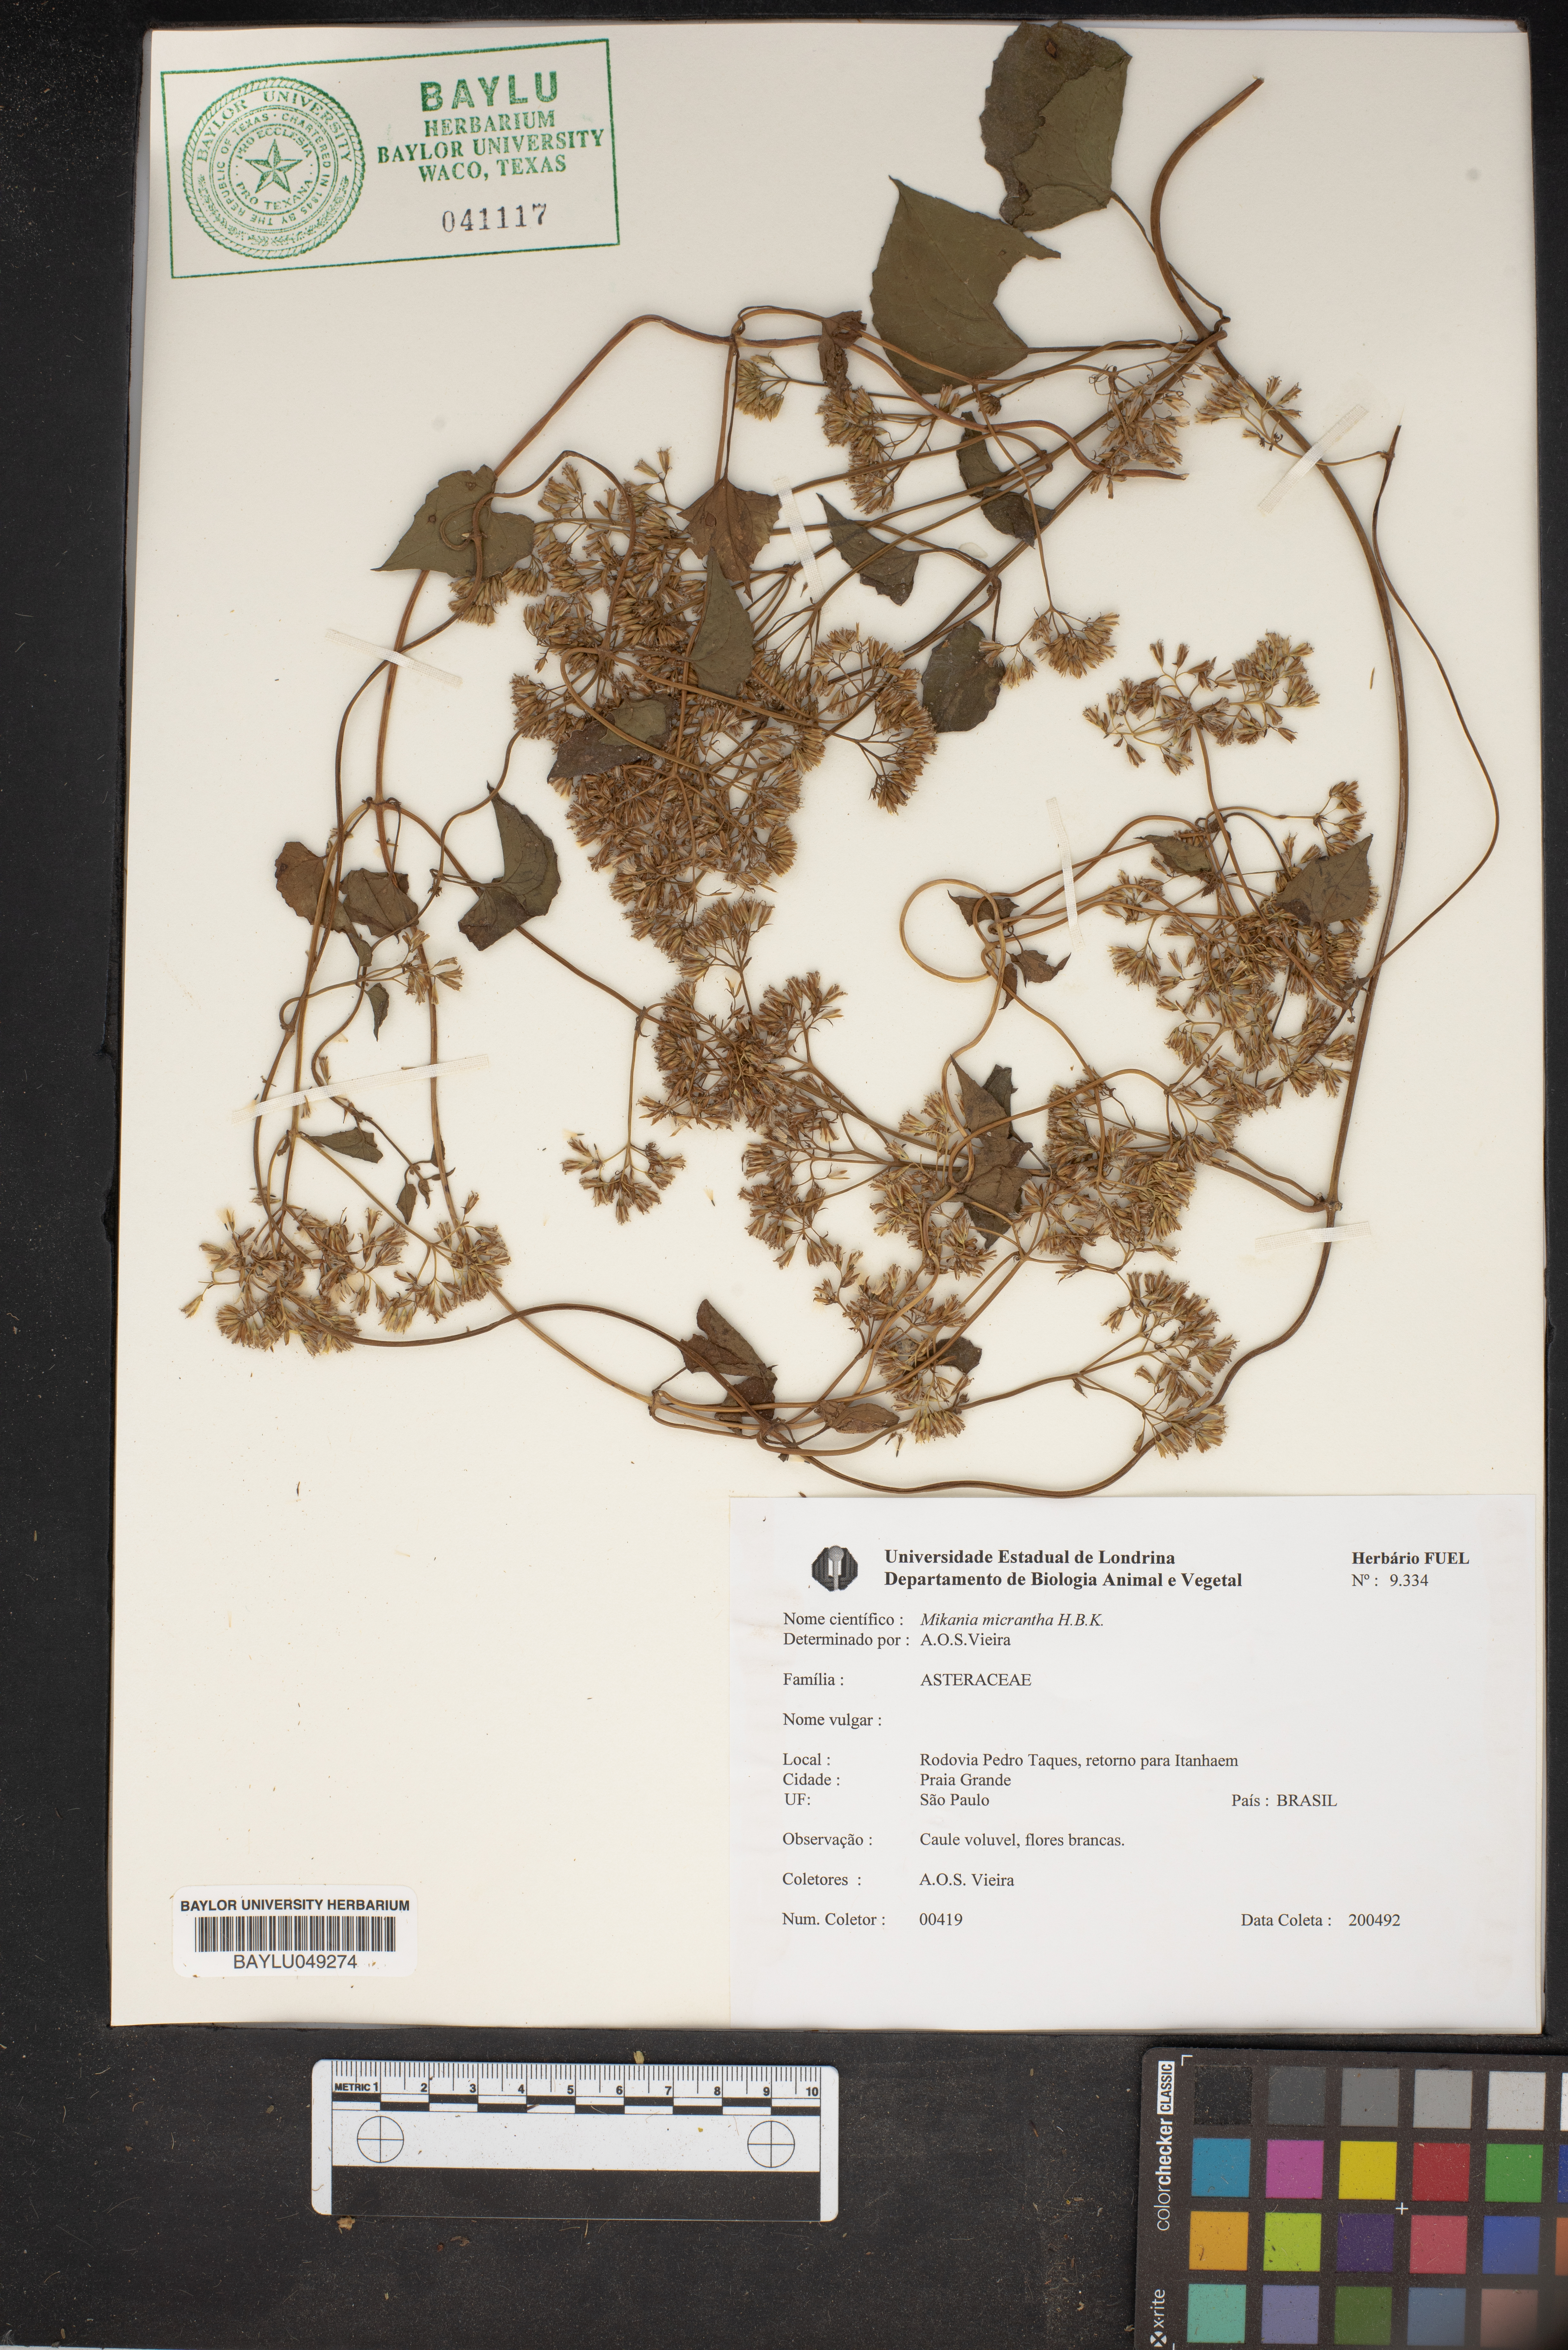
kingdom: Plantae
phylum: Tracheophyta
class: Magnoliopsida
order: Asterales
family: Asteraceae
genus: Mikania
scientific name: Mikania micrantha
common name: Mile-a-minute
